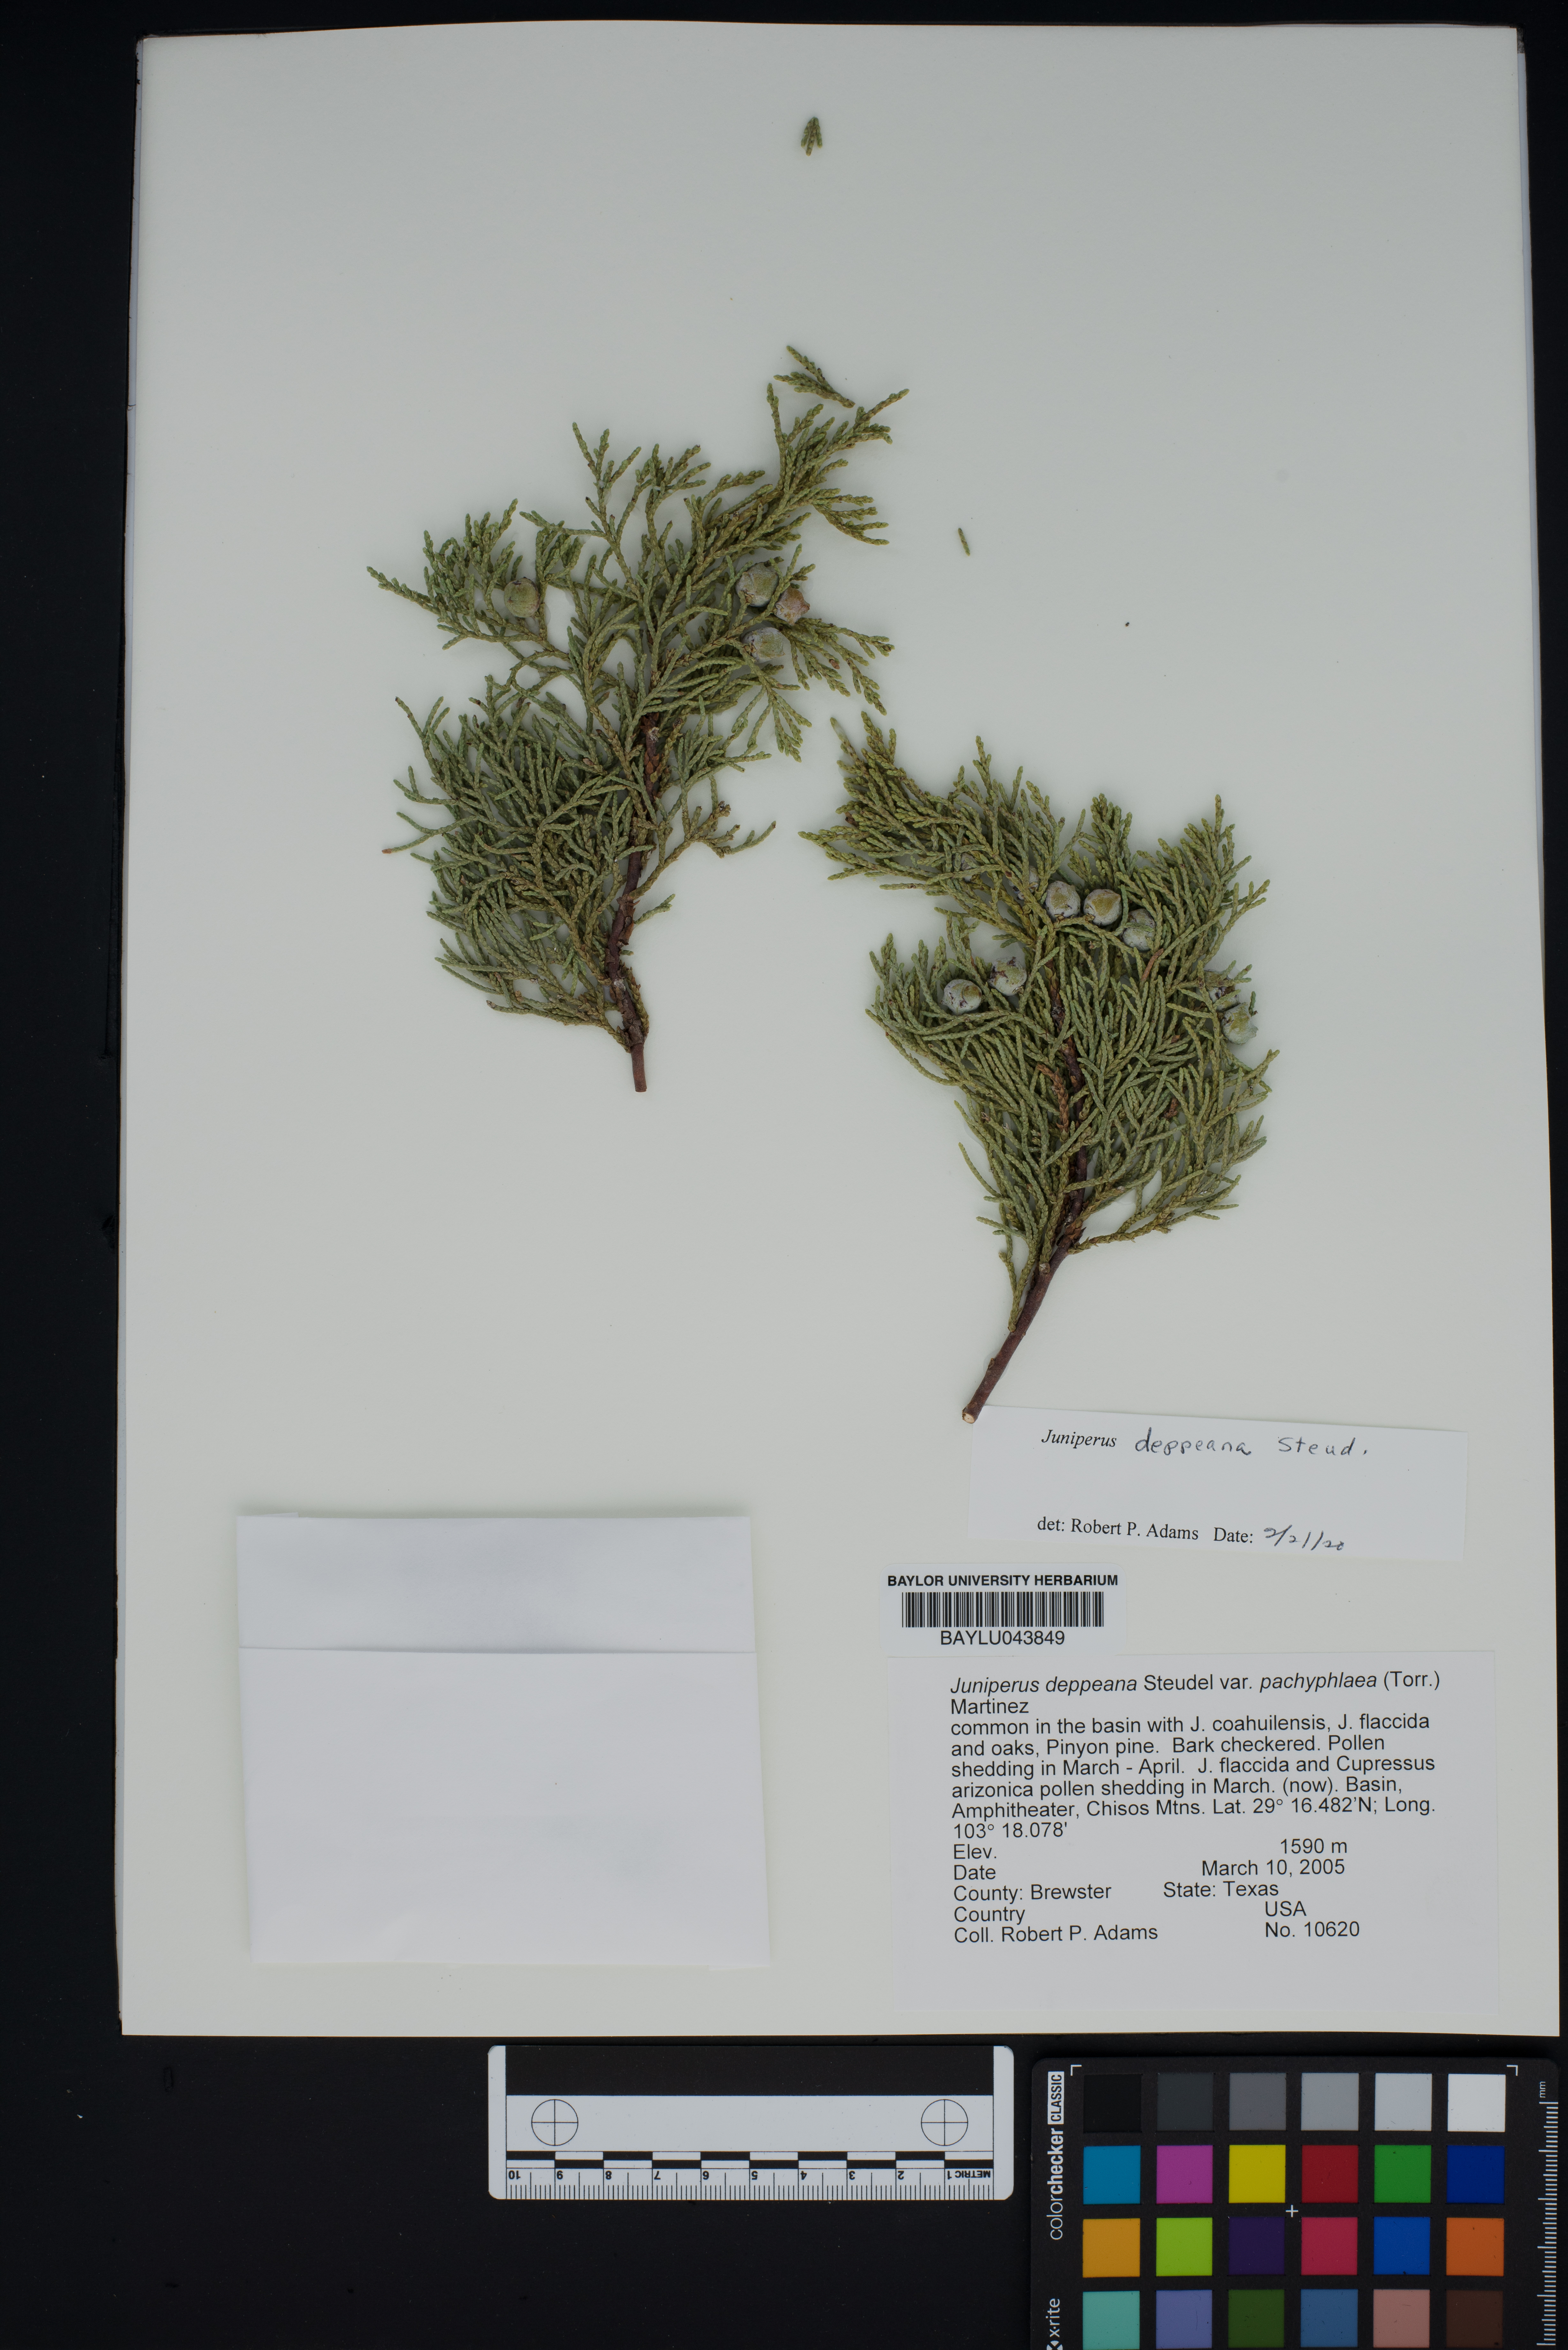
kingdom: Plantae
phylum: Tracheophyta
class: Pinopsida
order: Pinales
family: Cupressaceae
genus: Juniperus
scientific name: Juniperus deppeana
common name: Alligator juniper
